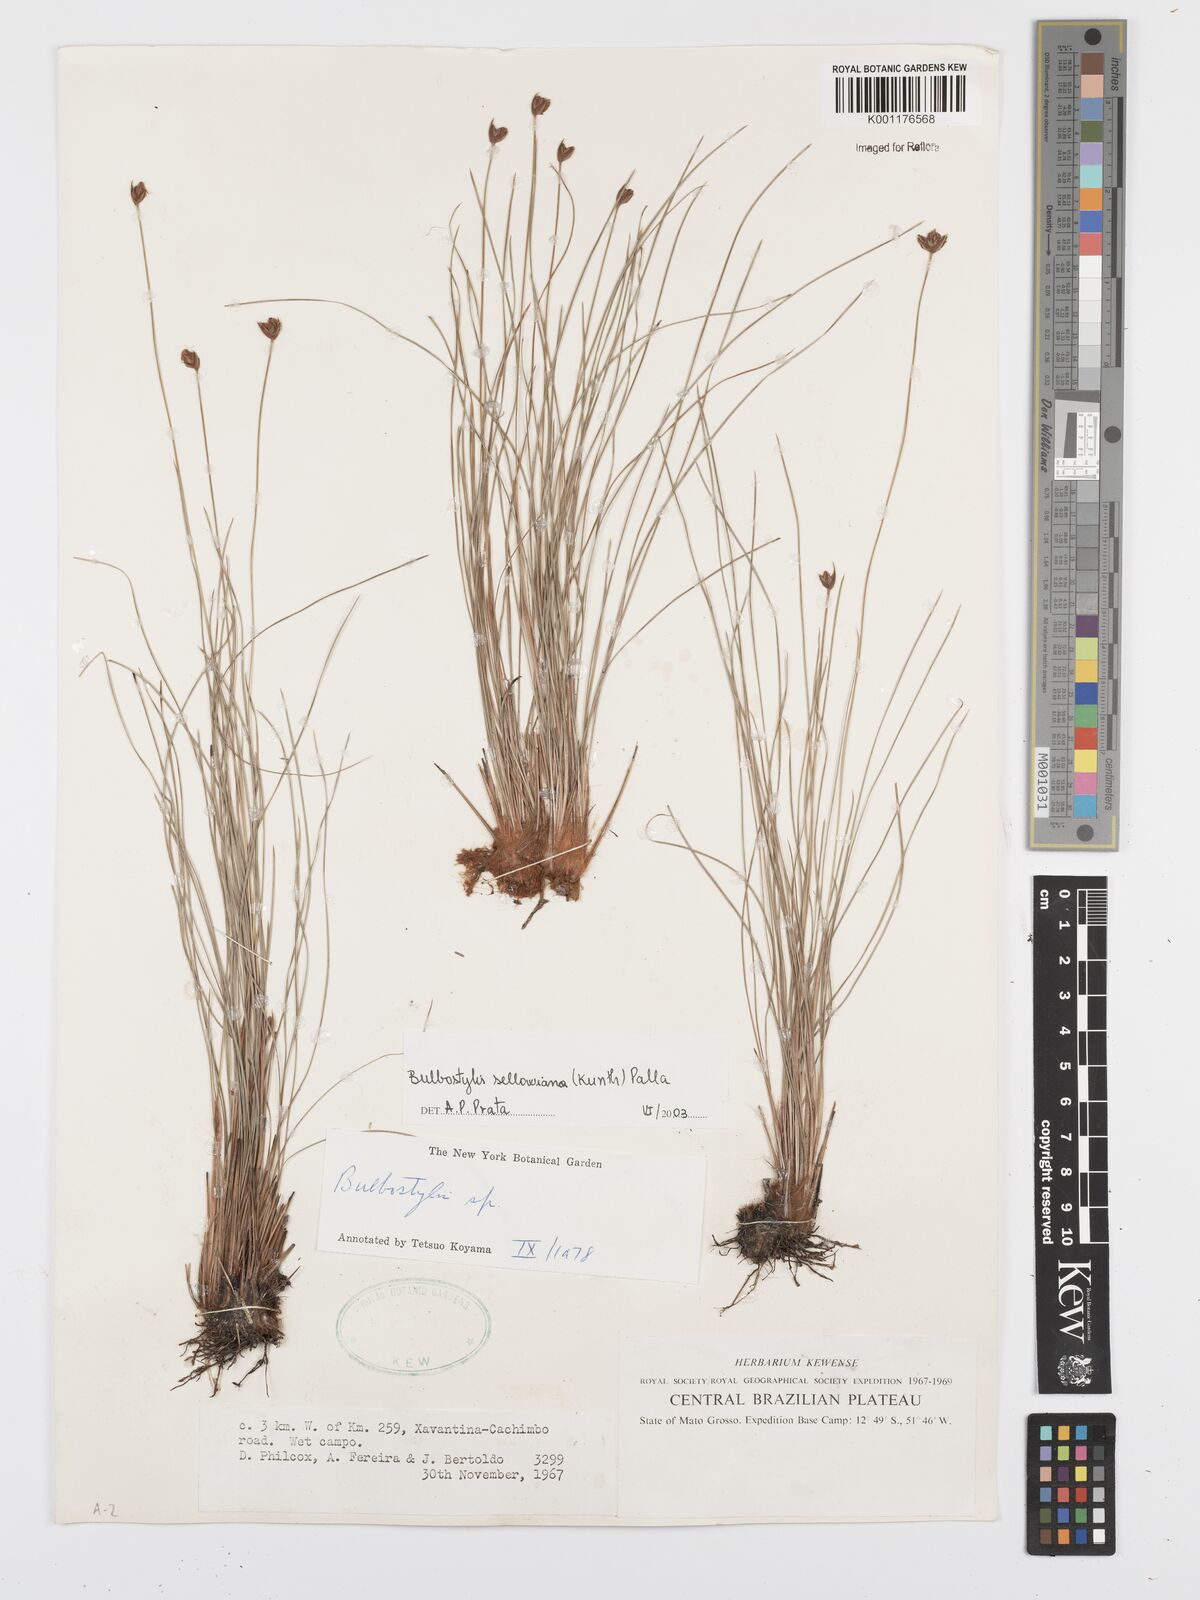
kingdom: Plantae
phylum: Tracheophyta
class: Liliopsida
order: Poales
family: Cyperaceae
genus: Bulbostylis
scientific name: Bulbostylis sellowiana
